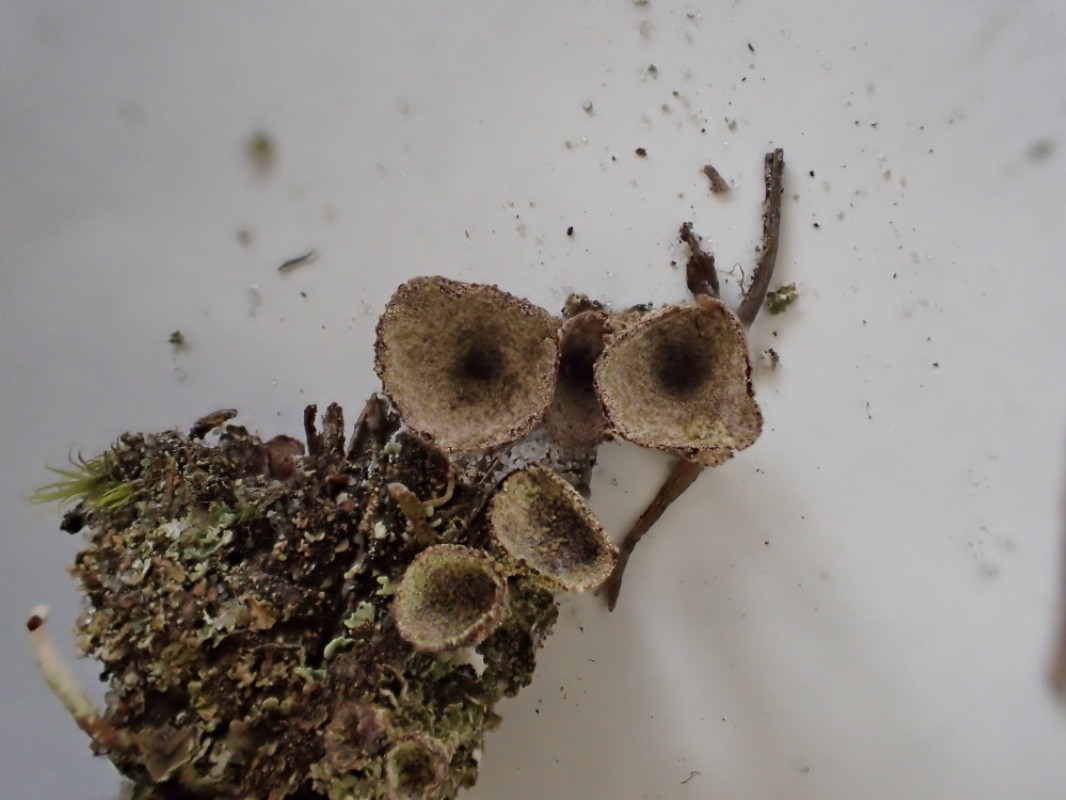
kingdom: Fungi
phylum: Ascomycota
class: Lecanoromycetes
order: Lecanorales
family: Cladoniaceae
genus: Cladonia
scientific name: Cladonia merochlorophaea
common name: mørk bægerlav
